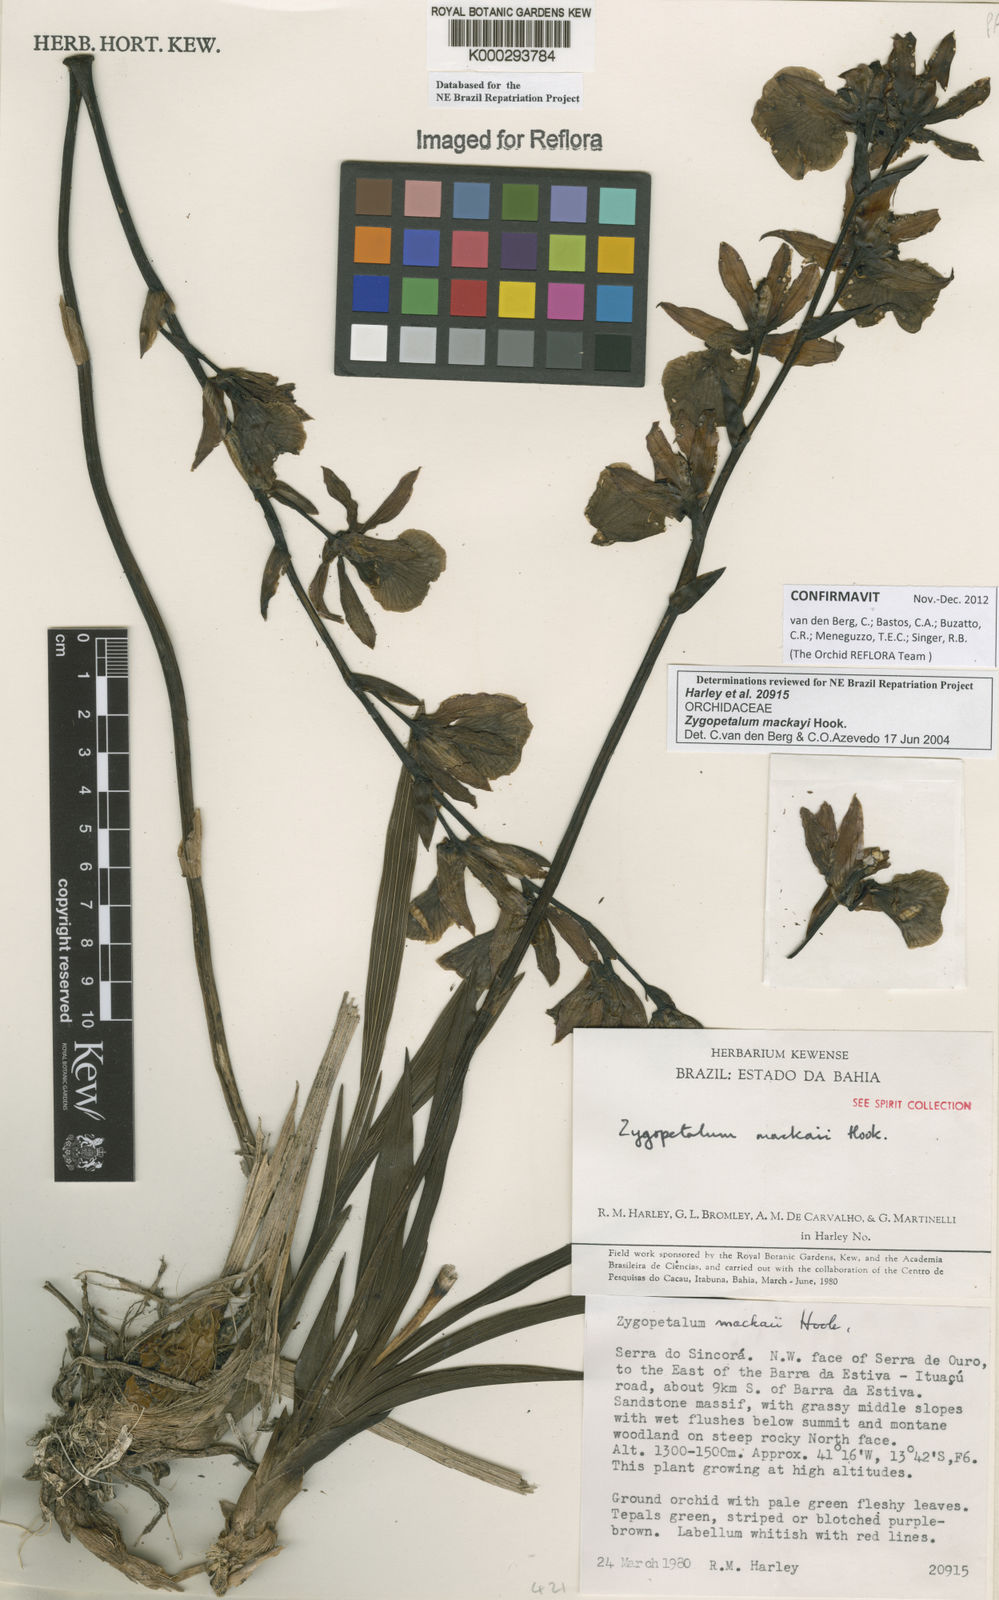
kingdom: Plantae
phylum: Tracheophyta
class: Liliopsida
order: Asparagales
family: Orchidaceae
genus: Zygopetalum
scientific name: Zygopetalum maculatum
